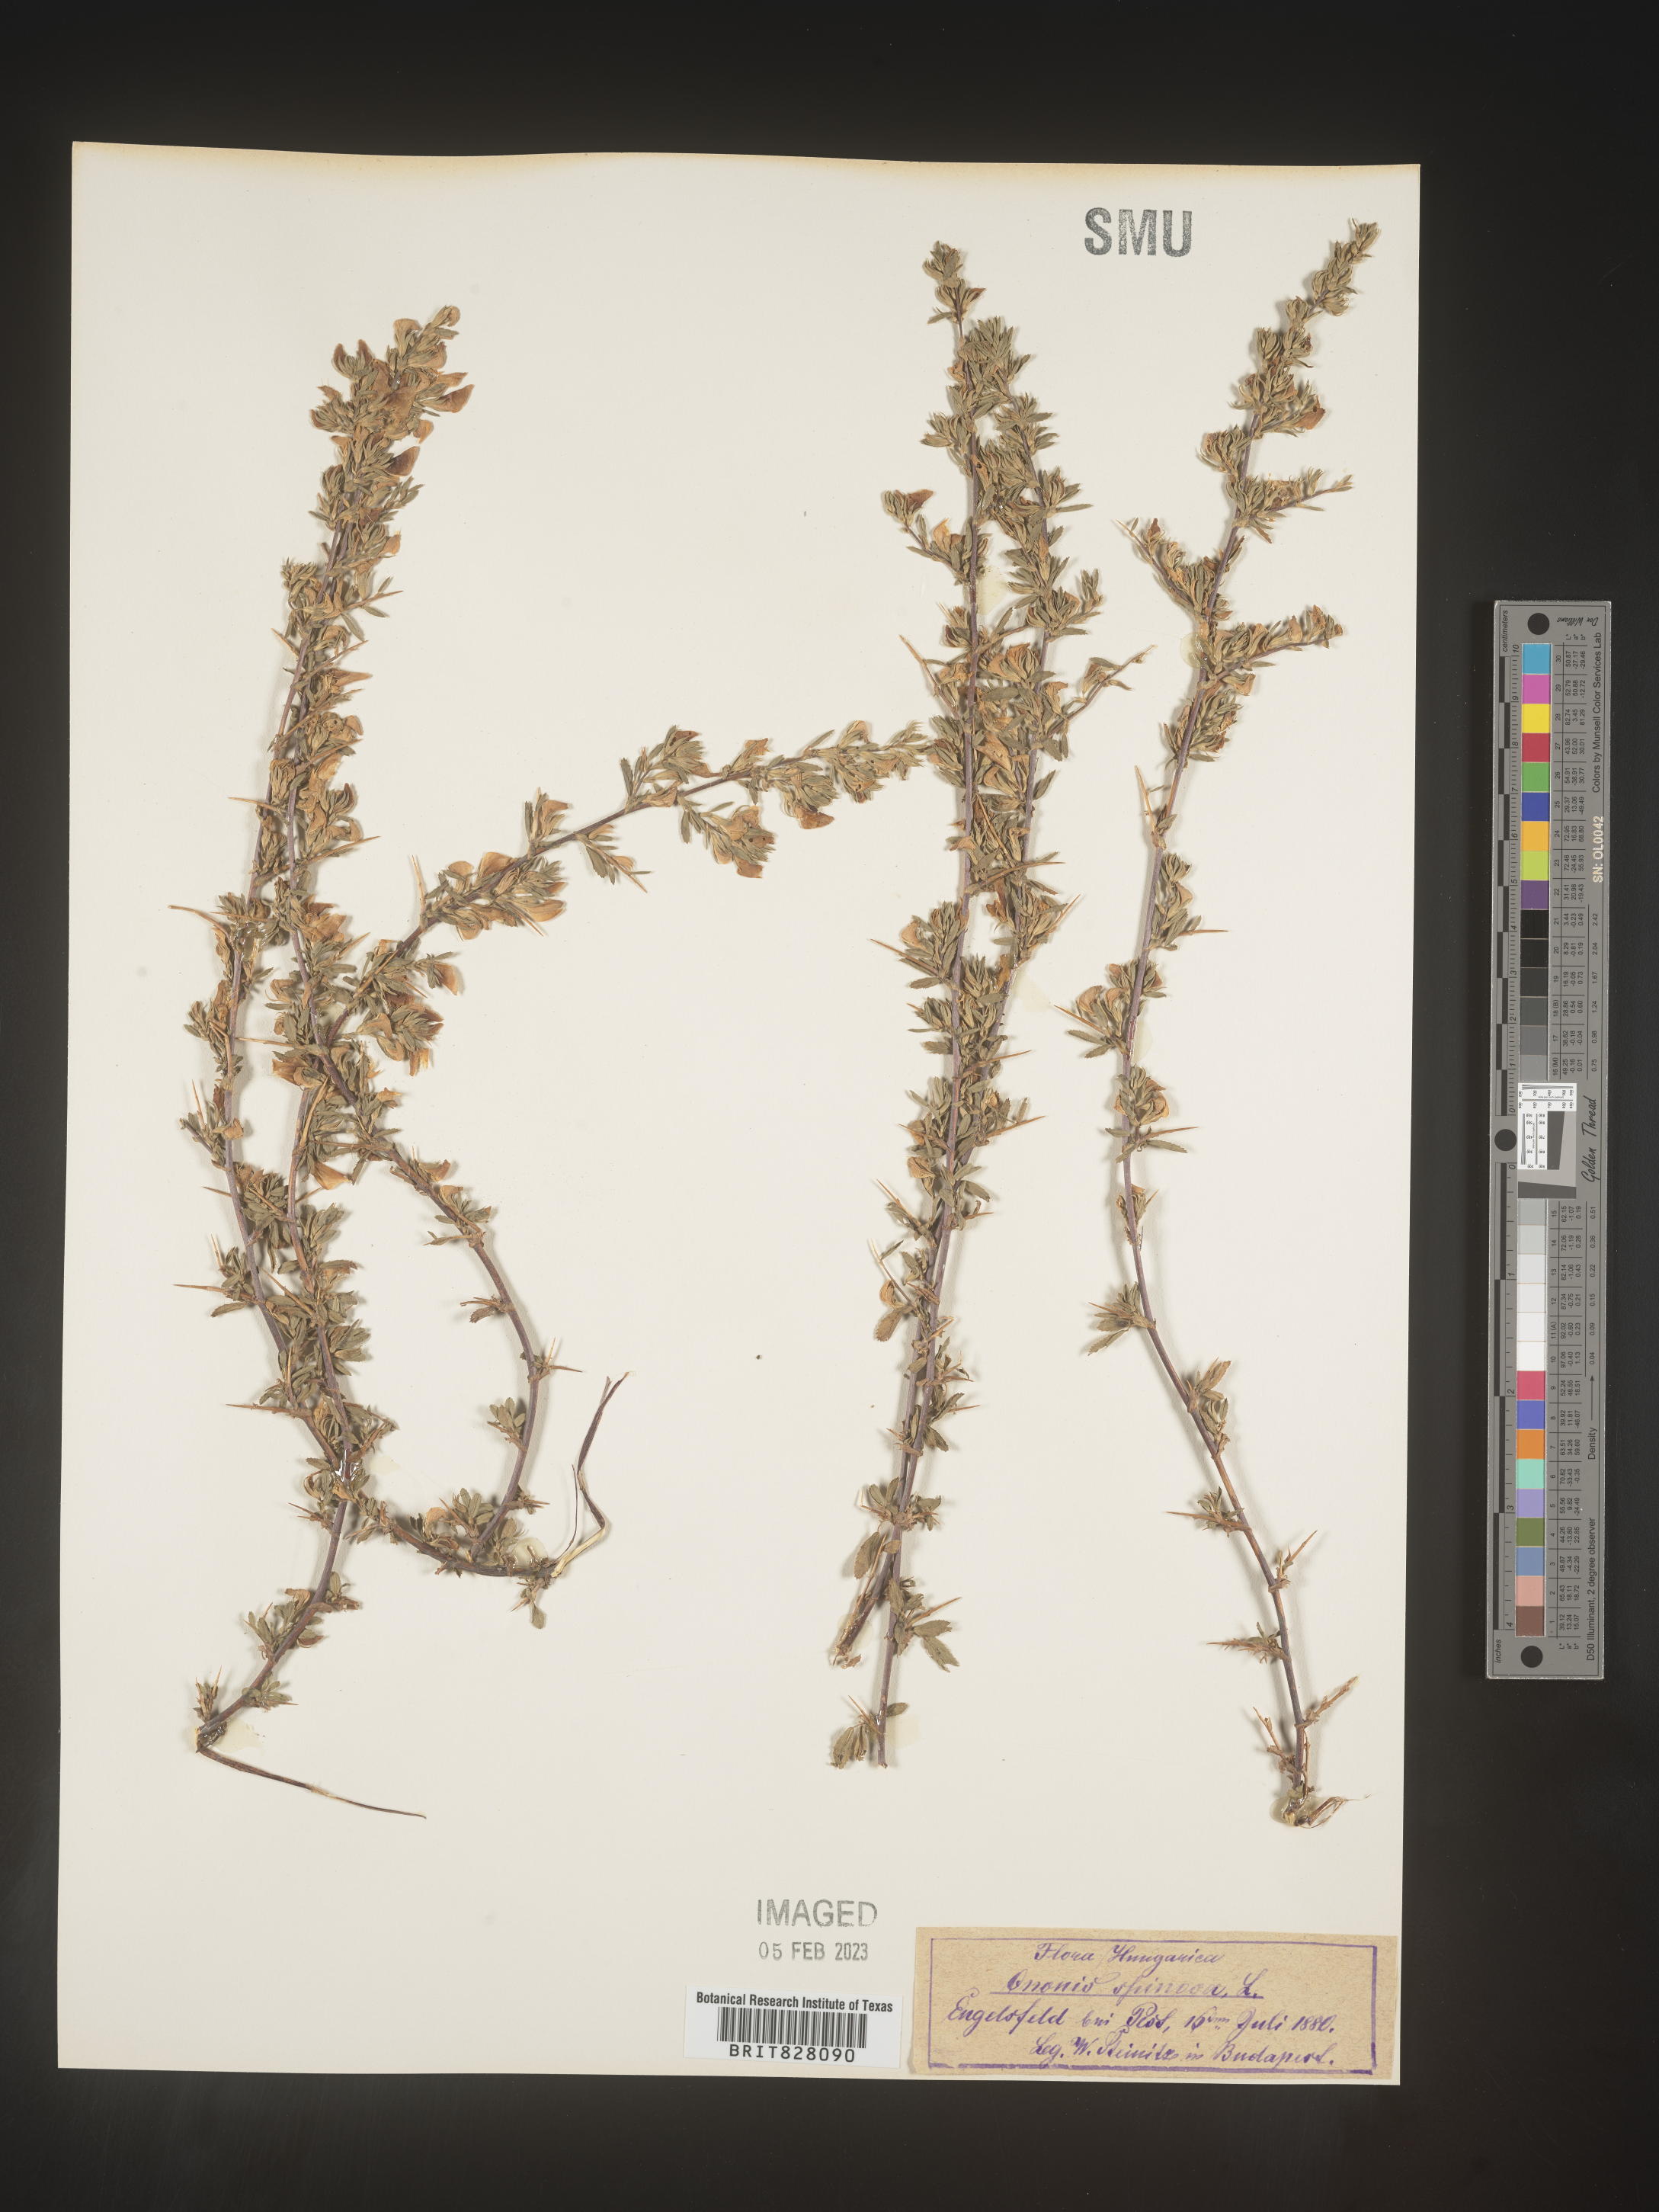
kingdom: Plantae
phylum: Tracheophyta
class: Magnoliopsida
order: Fabales
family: Fabaceae
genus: Ononis
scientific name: Ononis
